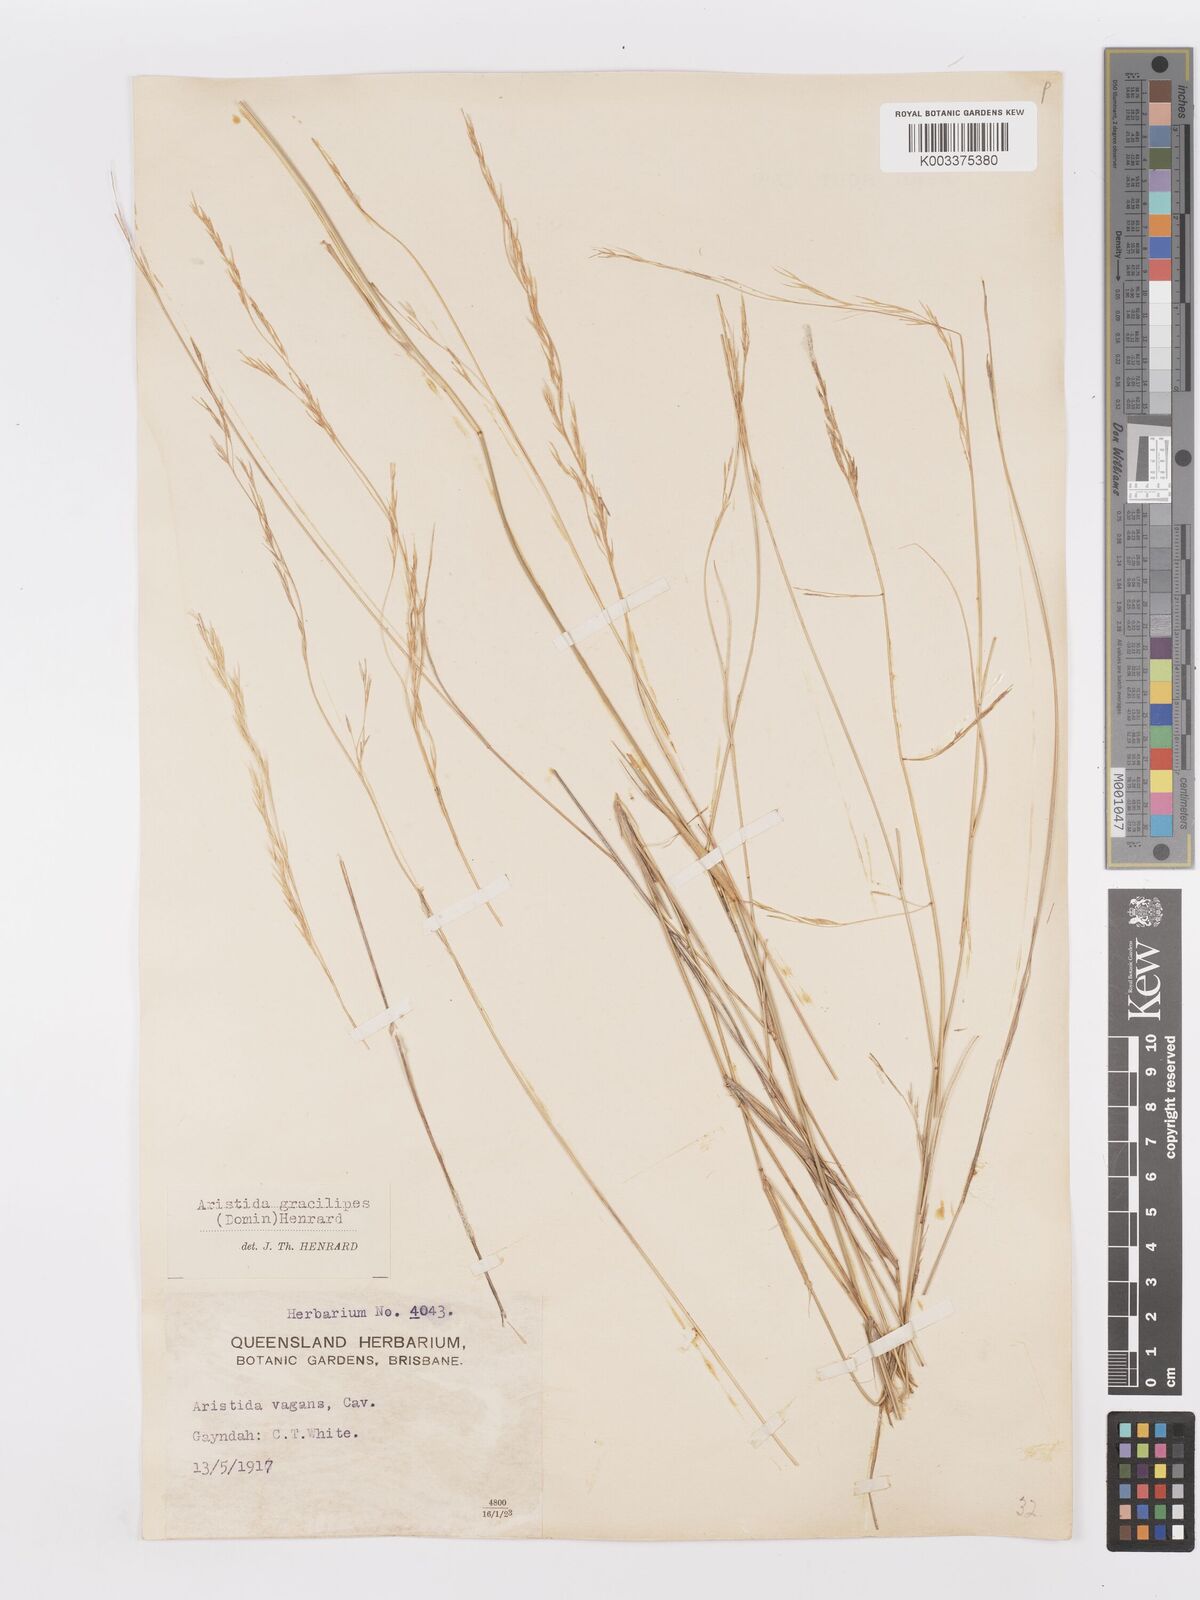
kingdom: Plantae
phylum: Tracheophyta
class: Liliopsida
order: Poales
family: Poaceae
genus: Aristida
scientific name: Aristida gracilipes
